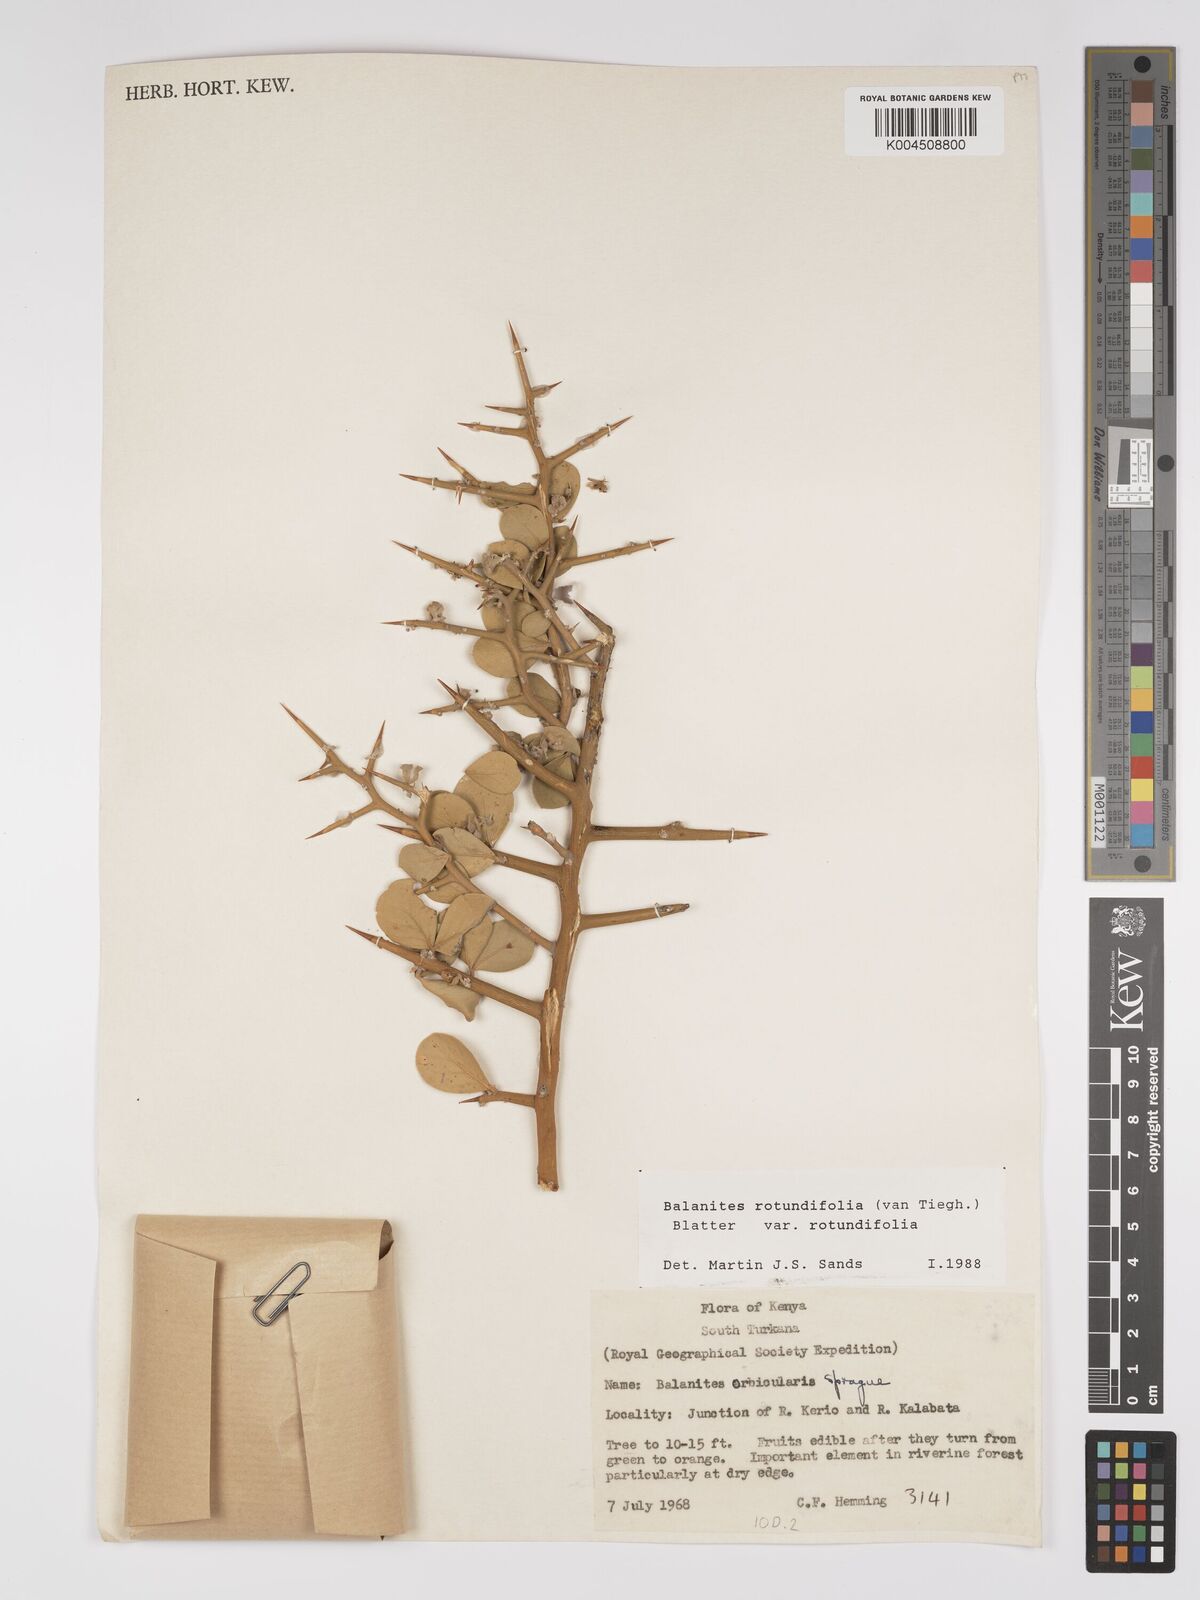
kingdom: Plantae
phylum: Tracheophyta
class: Magnoliopsida
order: Zygophyllales
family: Zygophyllaceae
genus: Balanites
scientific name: Balanites rotundifolia
